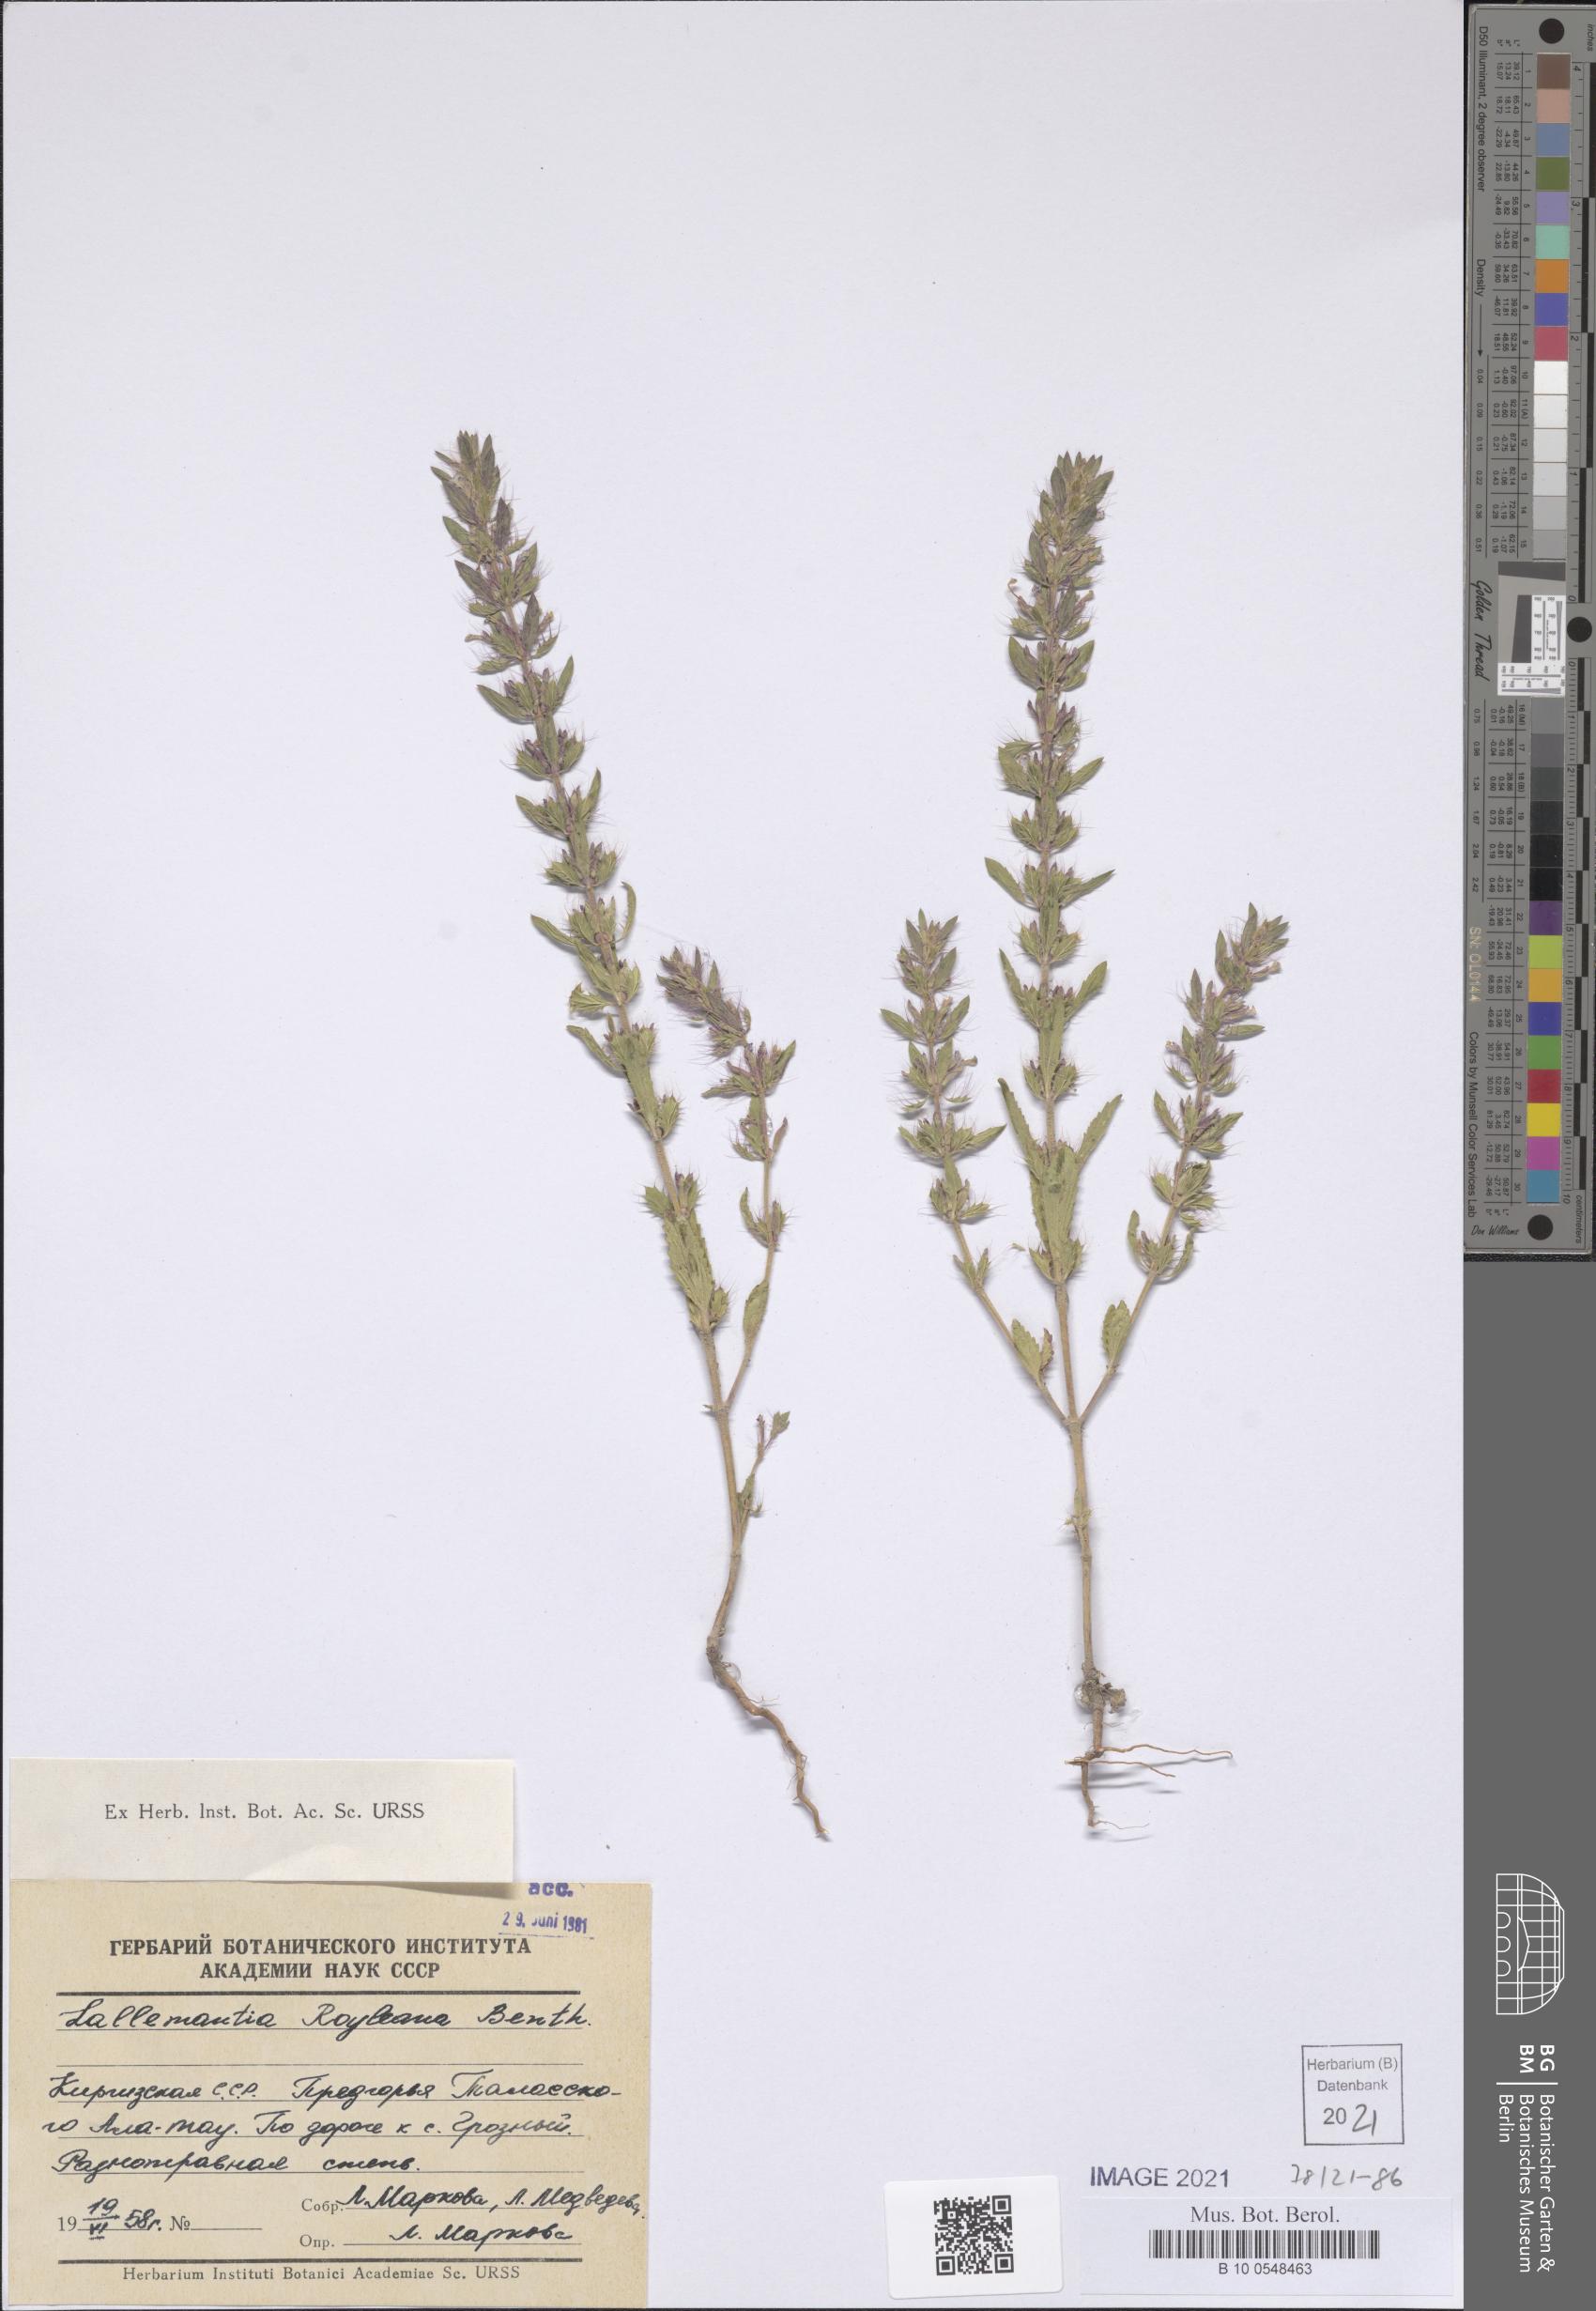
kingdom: Plantae
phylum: Tracheophyta
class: Magnoliopsida
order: Lamiales
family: Lamiaceae
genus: Lallemantia
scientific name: Lallemantia royleana
